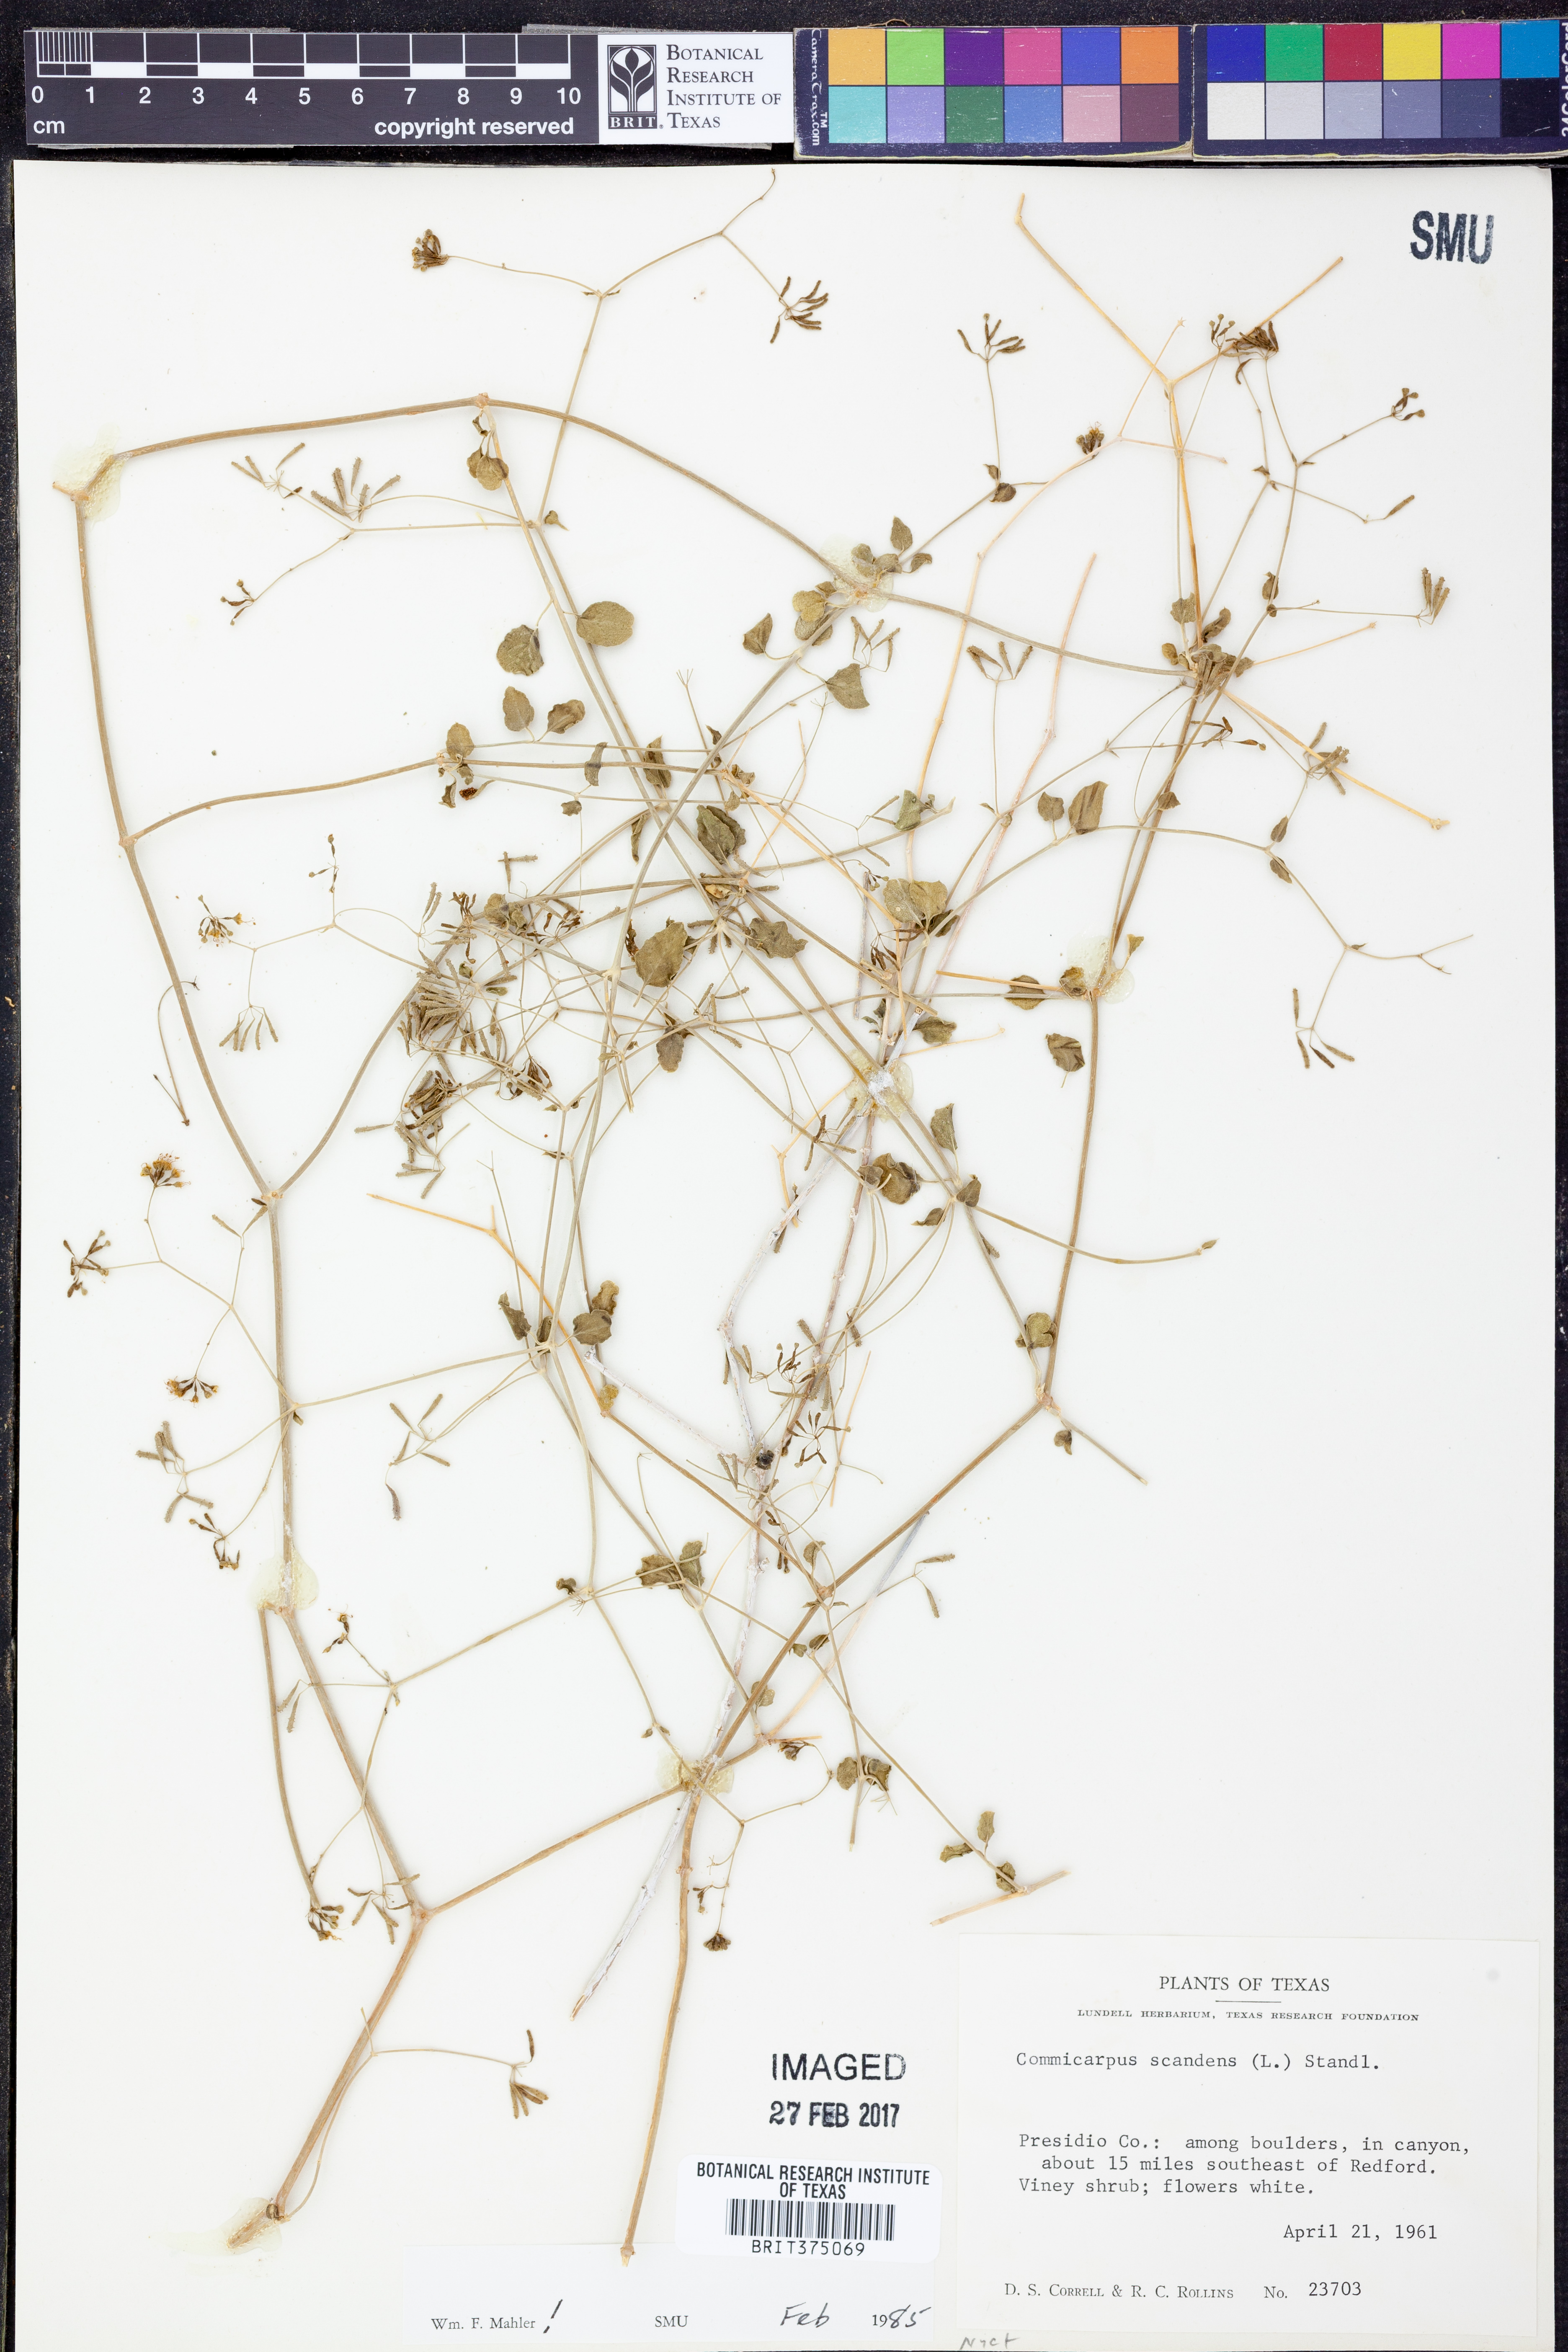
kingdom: Plantae
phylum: Tracheophyta
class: Magnoliopsida
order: Caryophyllales
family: Nyctaginaceae
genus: Commicarpus
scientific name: Commicarpus scandens
